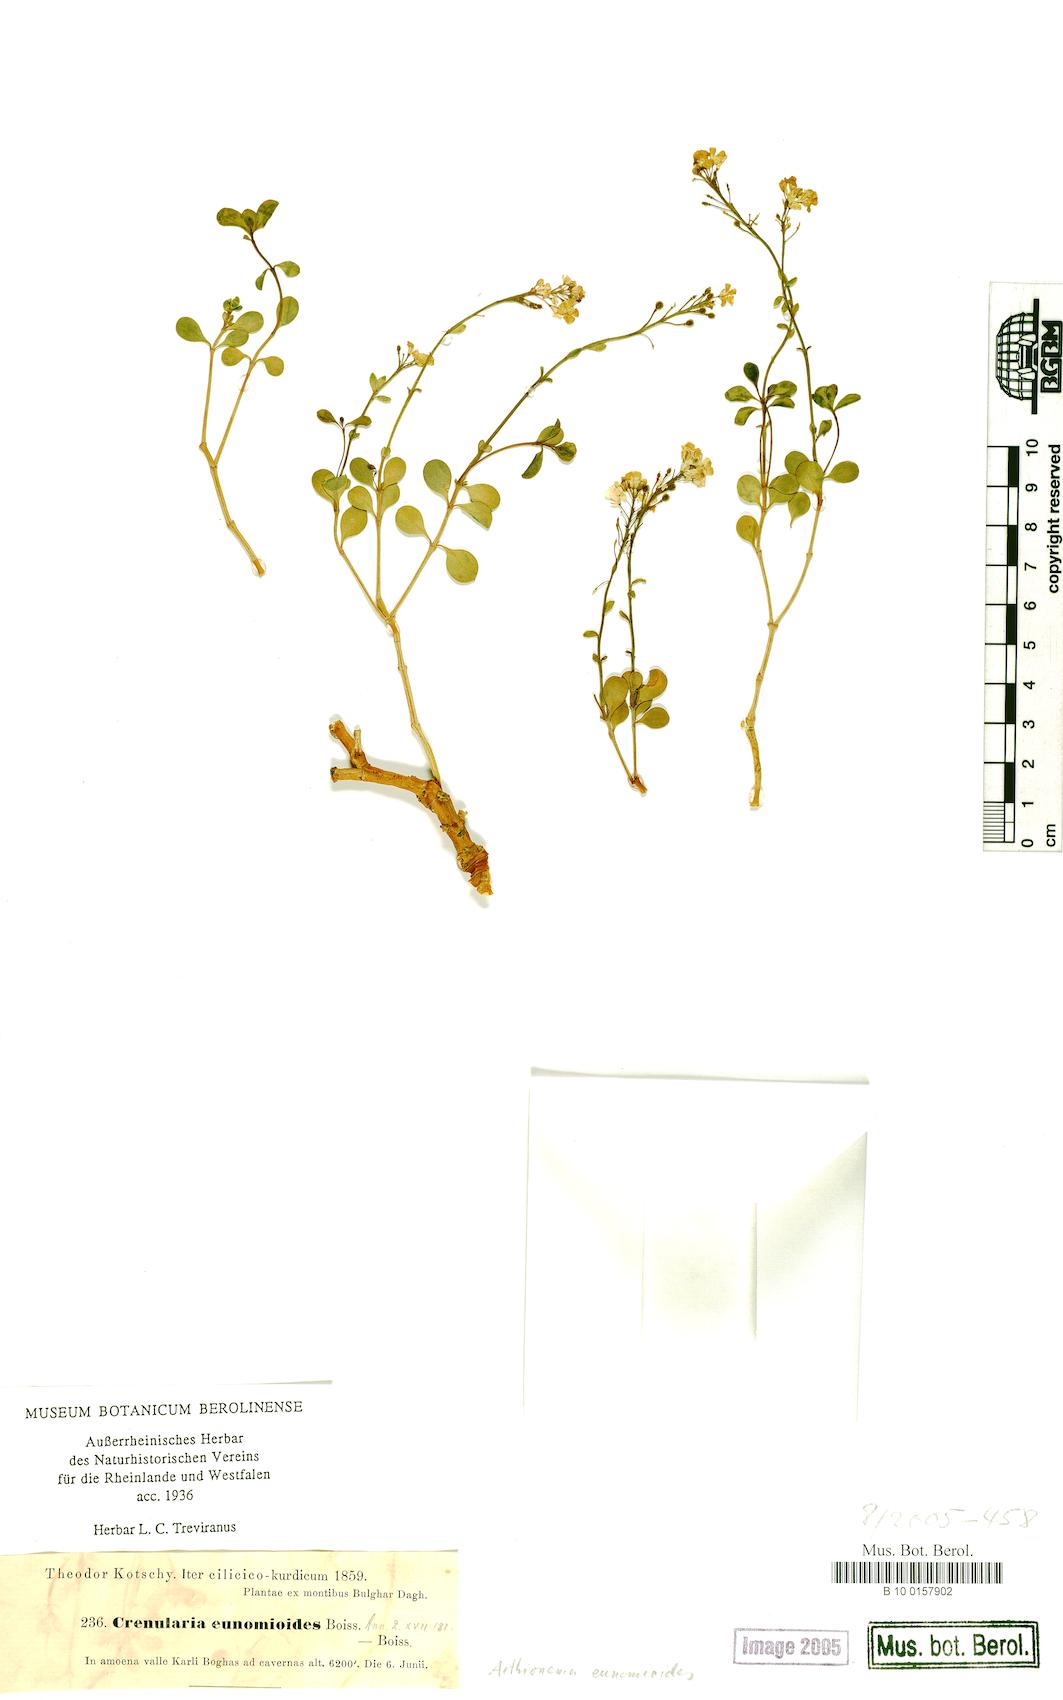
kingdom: Plantae
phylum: Tracheophyta
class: Magnoliopsida
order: Brassicales
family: Brassicaceae
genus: Aethionema
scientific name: Aethionema eunomioides
